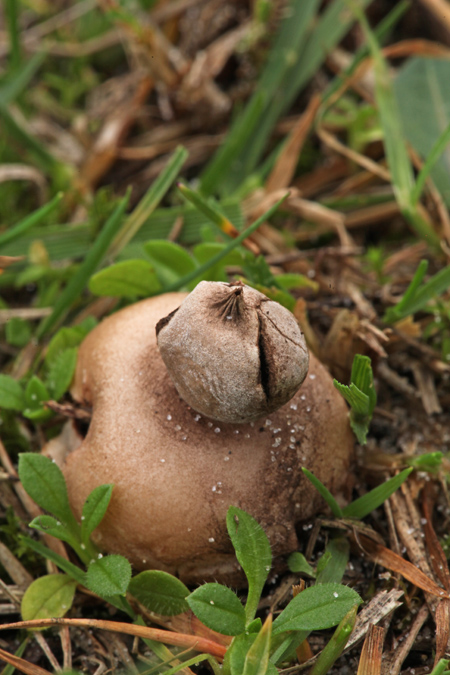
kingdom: Fungi
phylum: Basidiomycota
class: Agaricomycetes
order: Geastrales
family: Geastraceae
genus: Geastrum
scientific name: Geastrum striatum
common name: dværg-stjernebold
